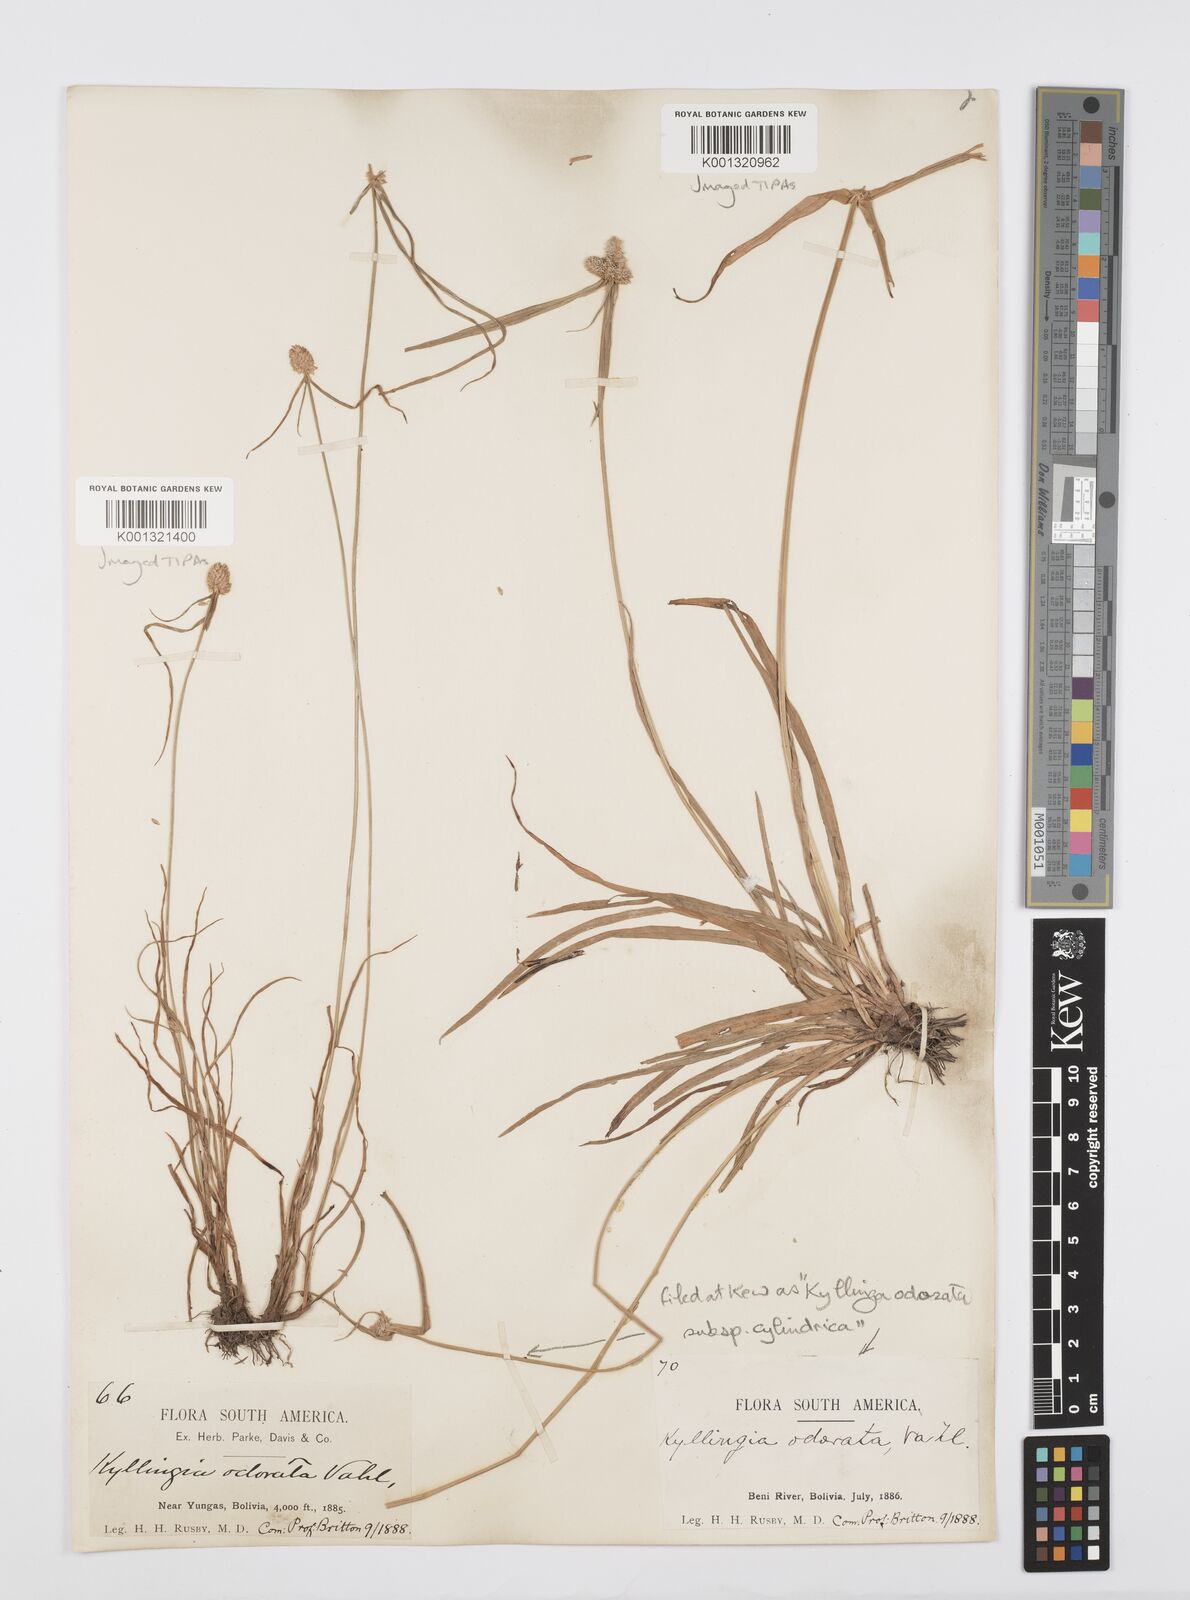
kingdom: Plantae
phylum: Tracheophyta
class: Liliopsida
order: Poales
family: Cyperaceae
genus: Cyperus
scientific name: Cyperus
